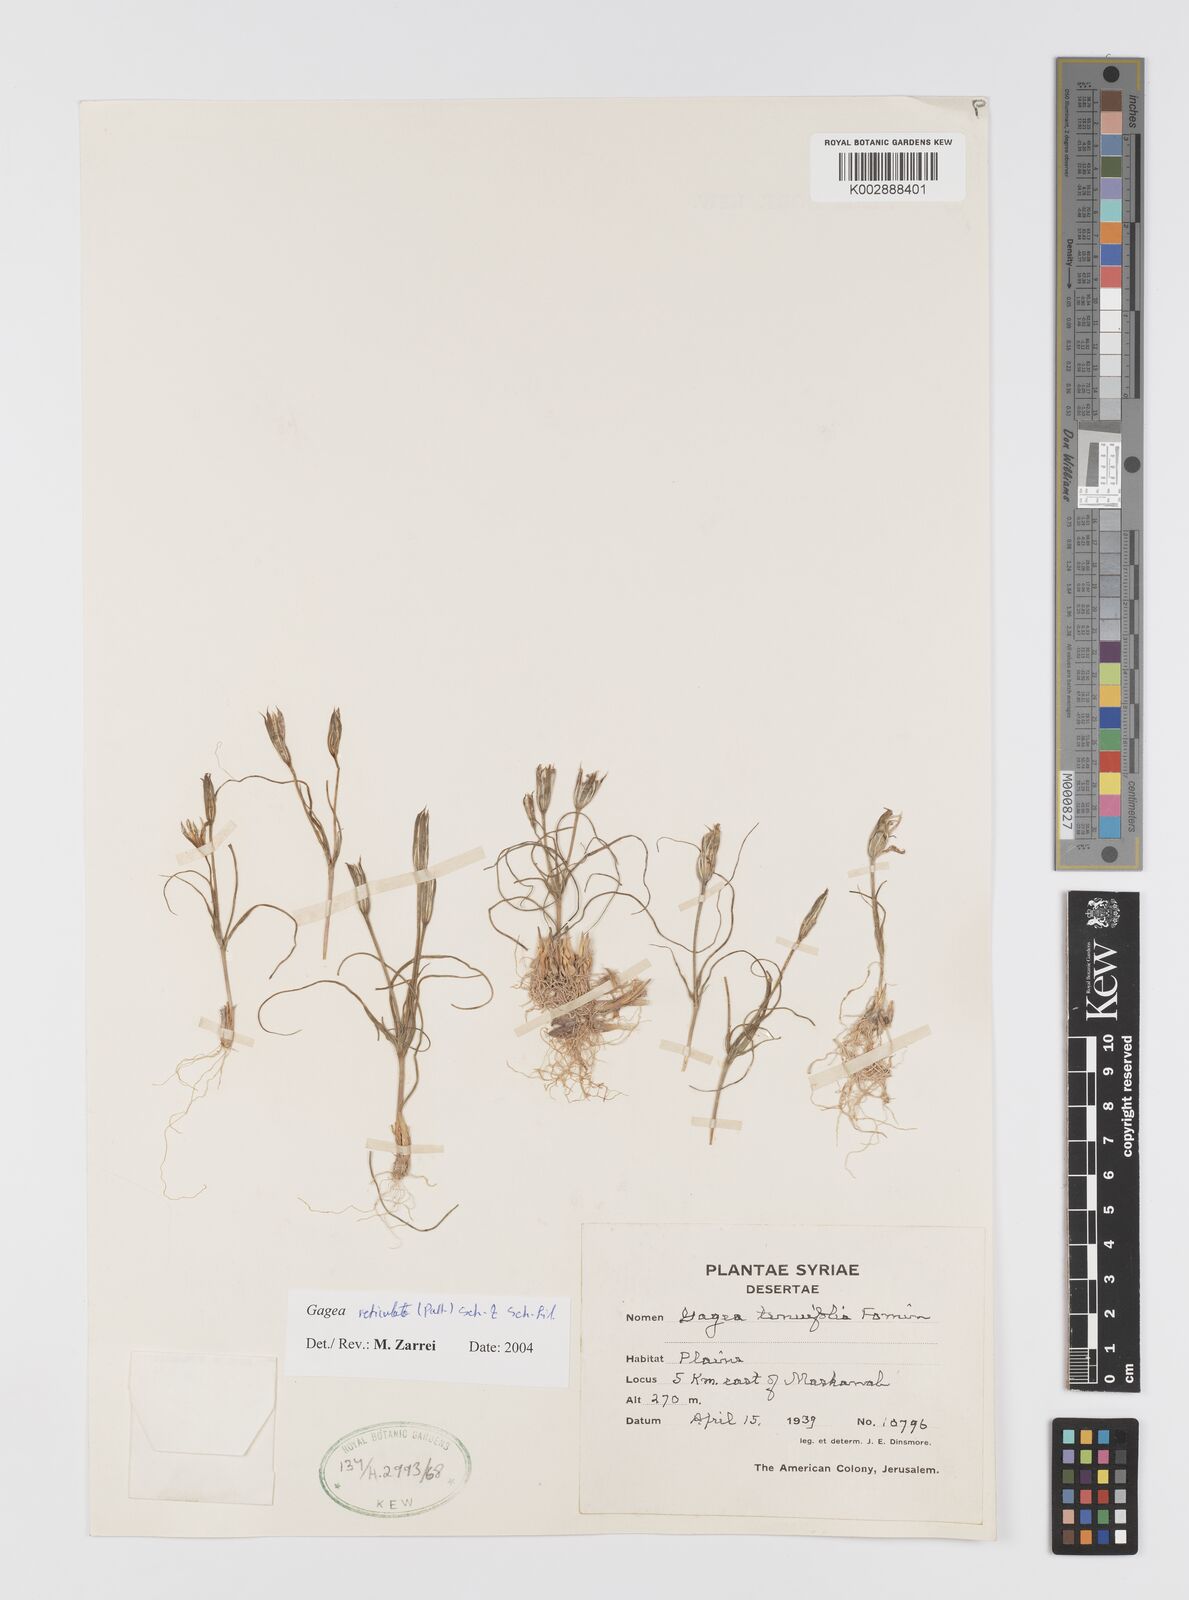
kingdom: Plantae
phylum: Tracheophyta
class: Liliopsida
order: Liliales
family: Liliaceae
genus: Gagea
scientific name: Gagea reticulata
